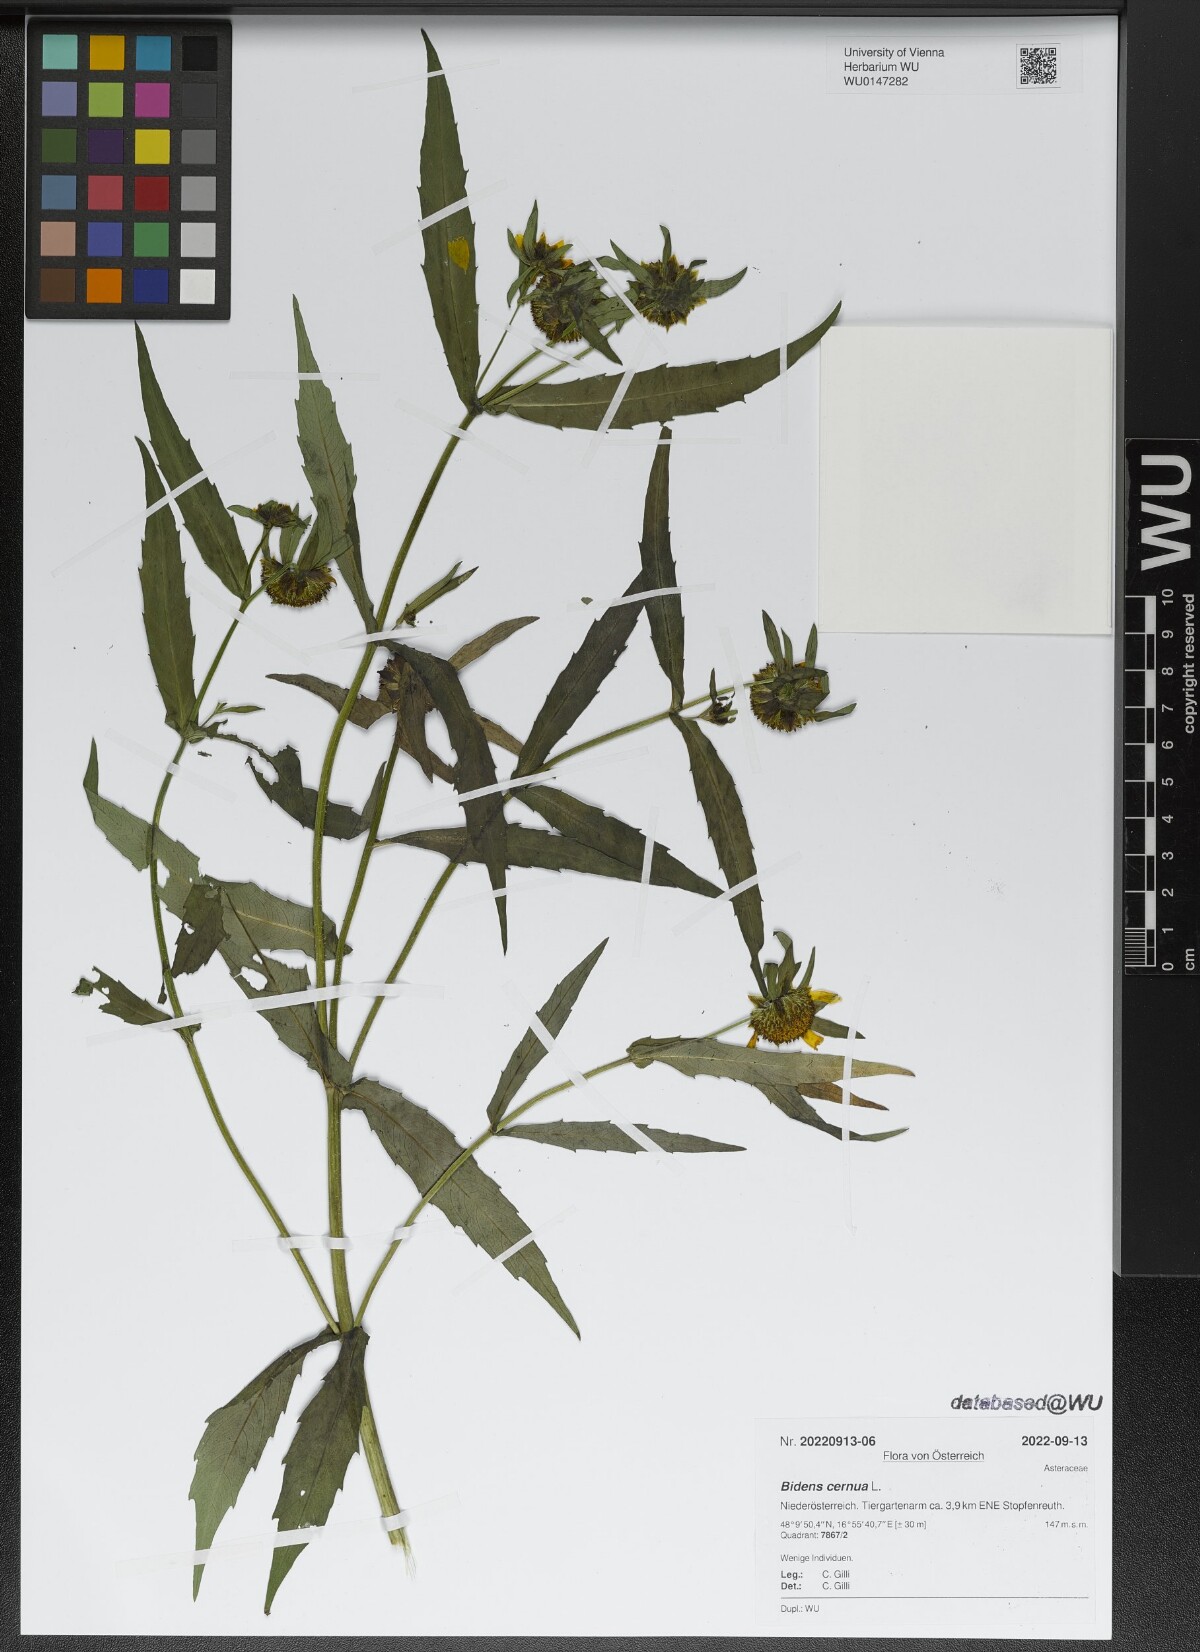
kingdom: Plantae
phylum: Tracheophyta
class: Magnoliopsida
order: Asterales
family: Asteraceae
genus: Bidens
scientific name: Bidens cernua
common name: Nodding bur-marigold
